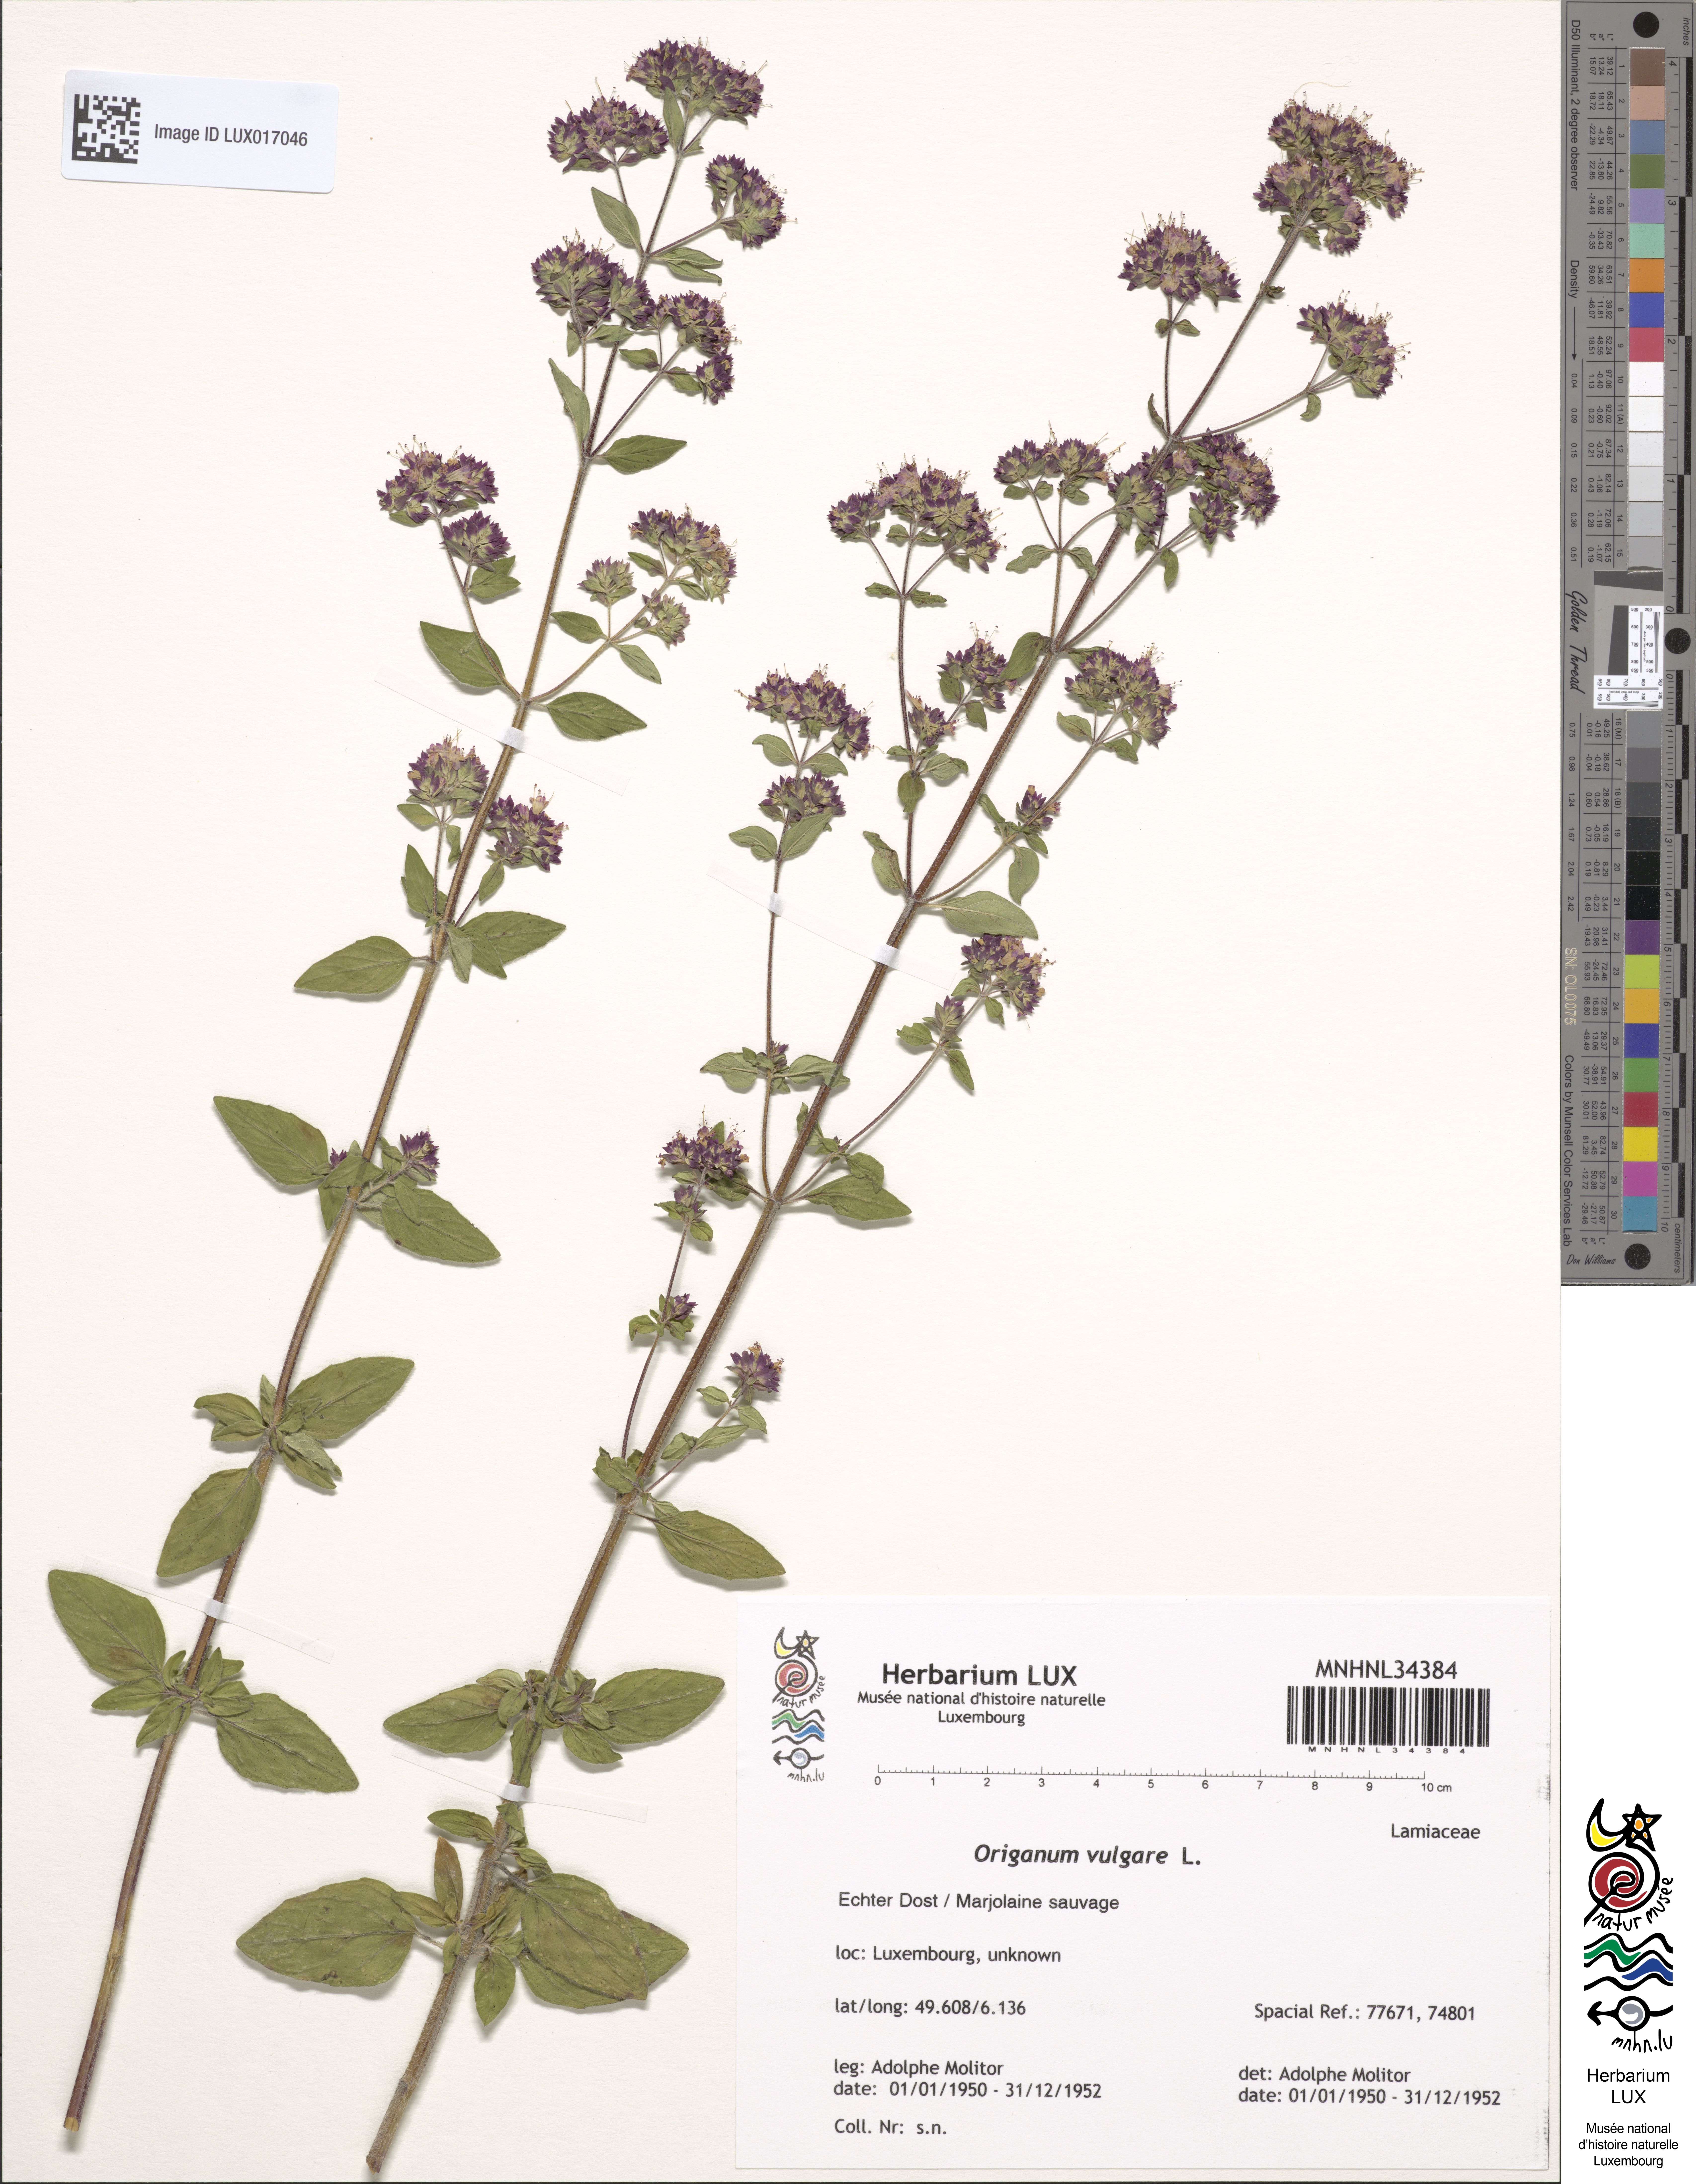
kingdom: Plantae
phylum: Tracheophyta
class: Magnoliopsida
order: Lamiales
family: Lamiaceae
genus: Origanum
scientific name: Origanum vulgare
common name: Wild marjoram
